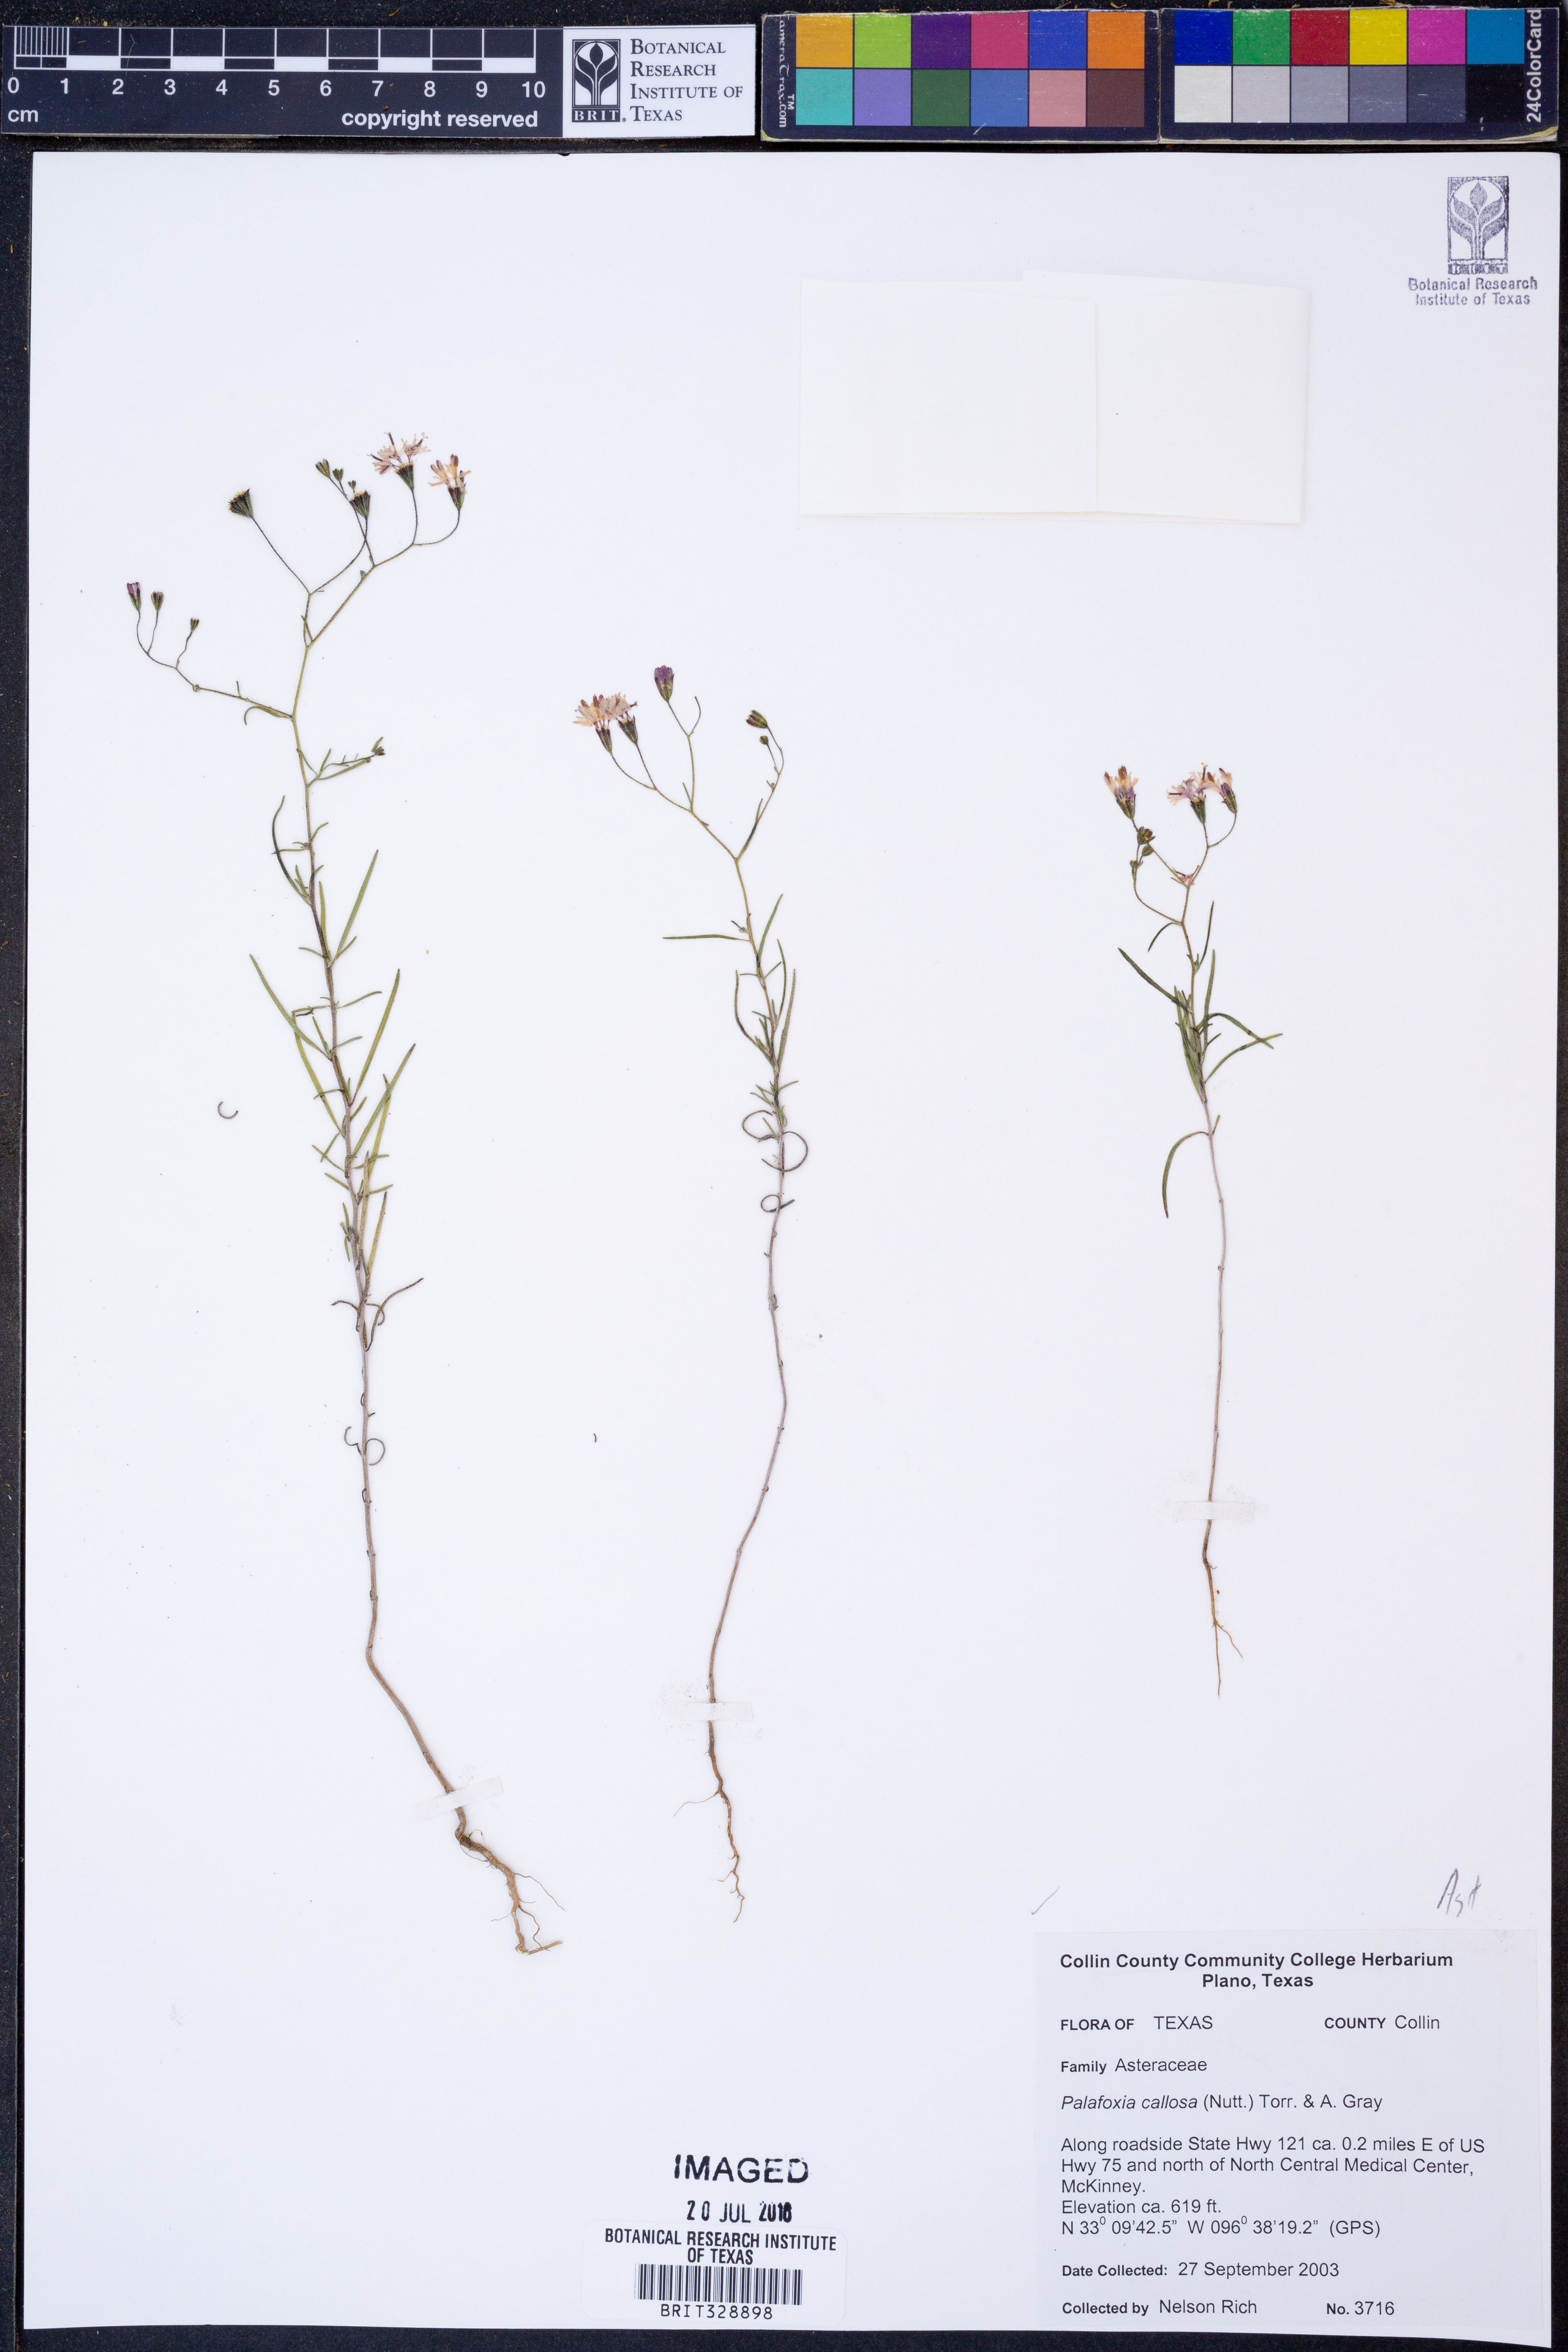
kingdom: Plantae
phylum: Tracheophyta
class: Magnoliopsida
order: Asterales
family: Asteraceae
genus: Palafoxia
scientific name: Palafoxia callosa
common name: Small palafox
